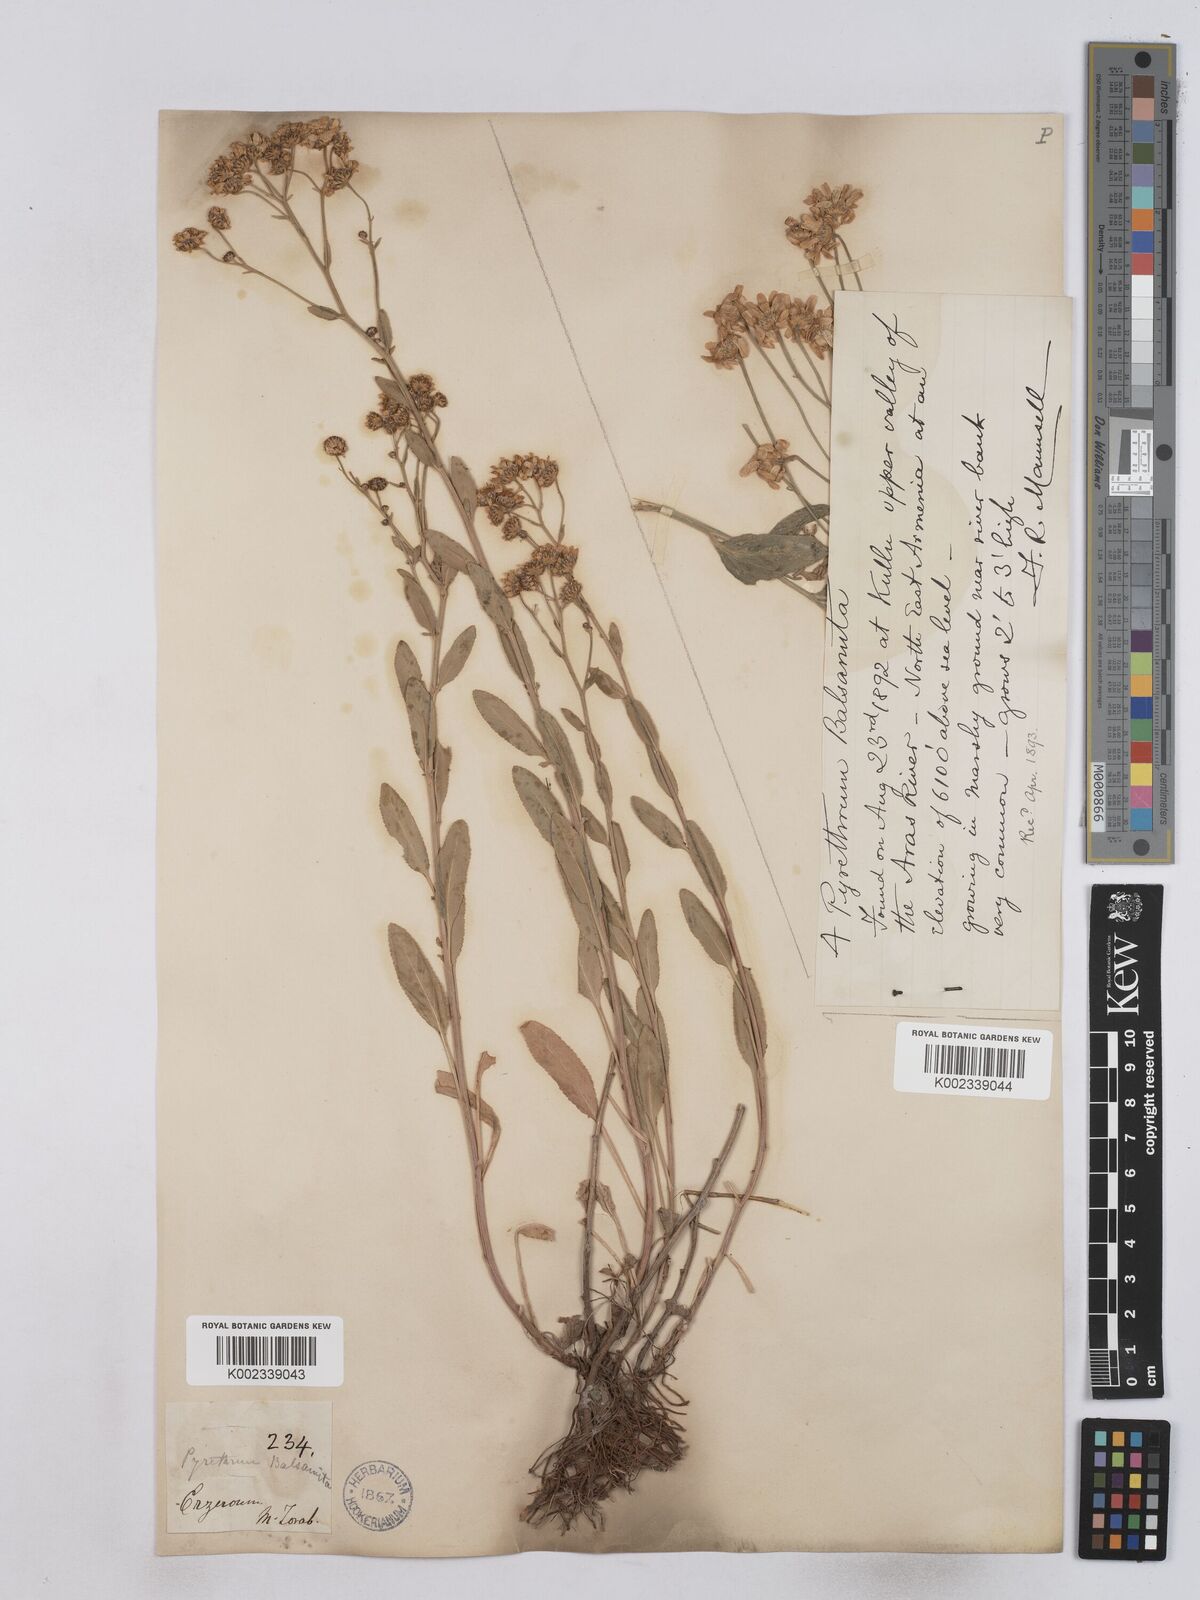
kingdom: Plantae
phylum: Tracheophyta
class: Magnoliopsida
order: Asterales
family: Asteraceae
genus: Tanacetum
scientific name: Tanacetum balsamita
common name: Costmary
